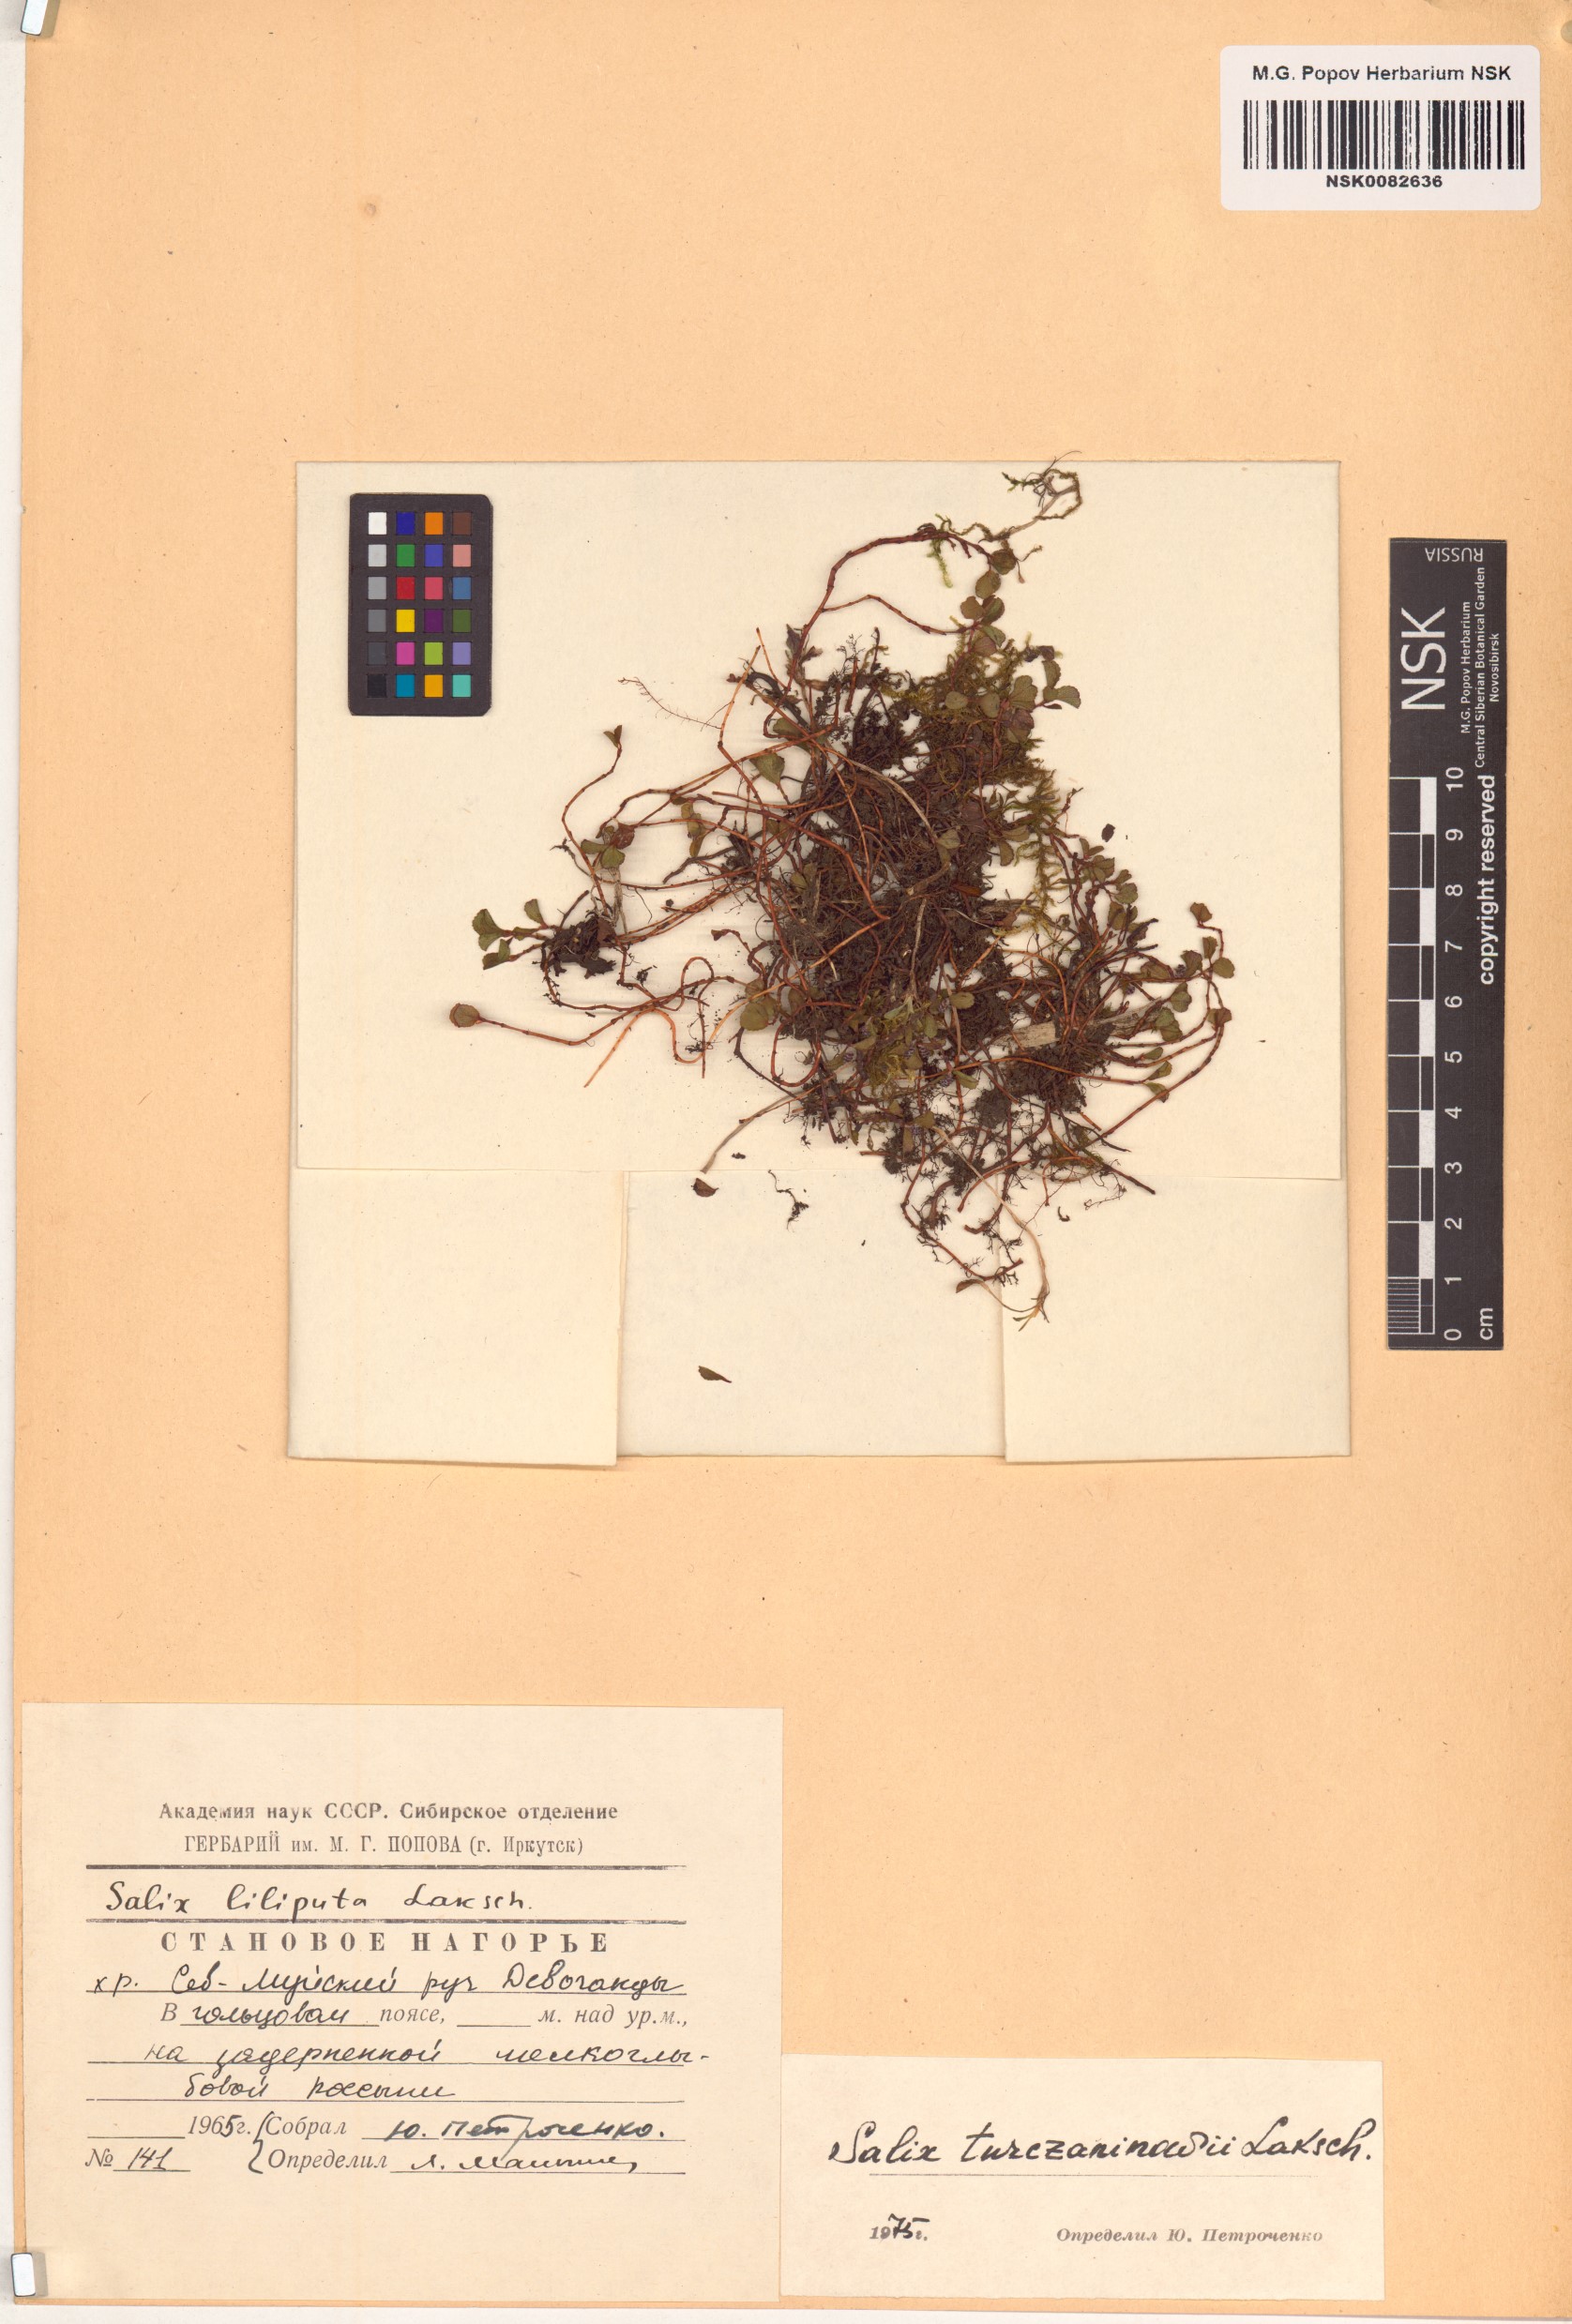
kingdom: Plantae
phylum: Tracheophyta
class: Magnoliopsida
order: Malpighiales
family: Salicaceae
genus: Salix
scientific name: Salix turczaninowii
